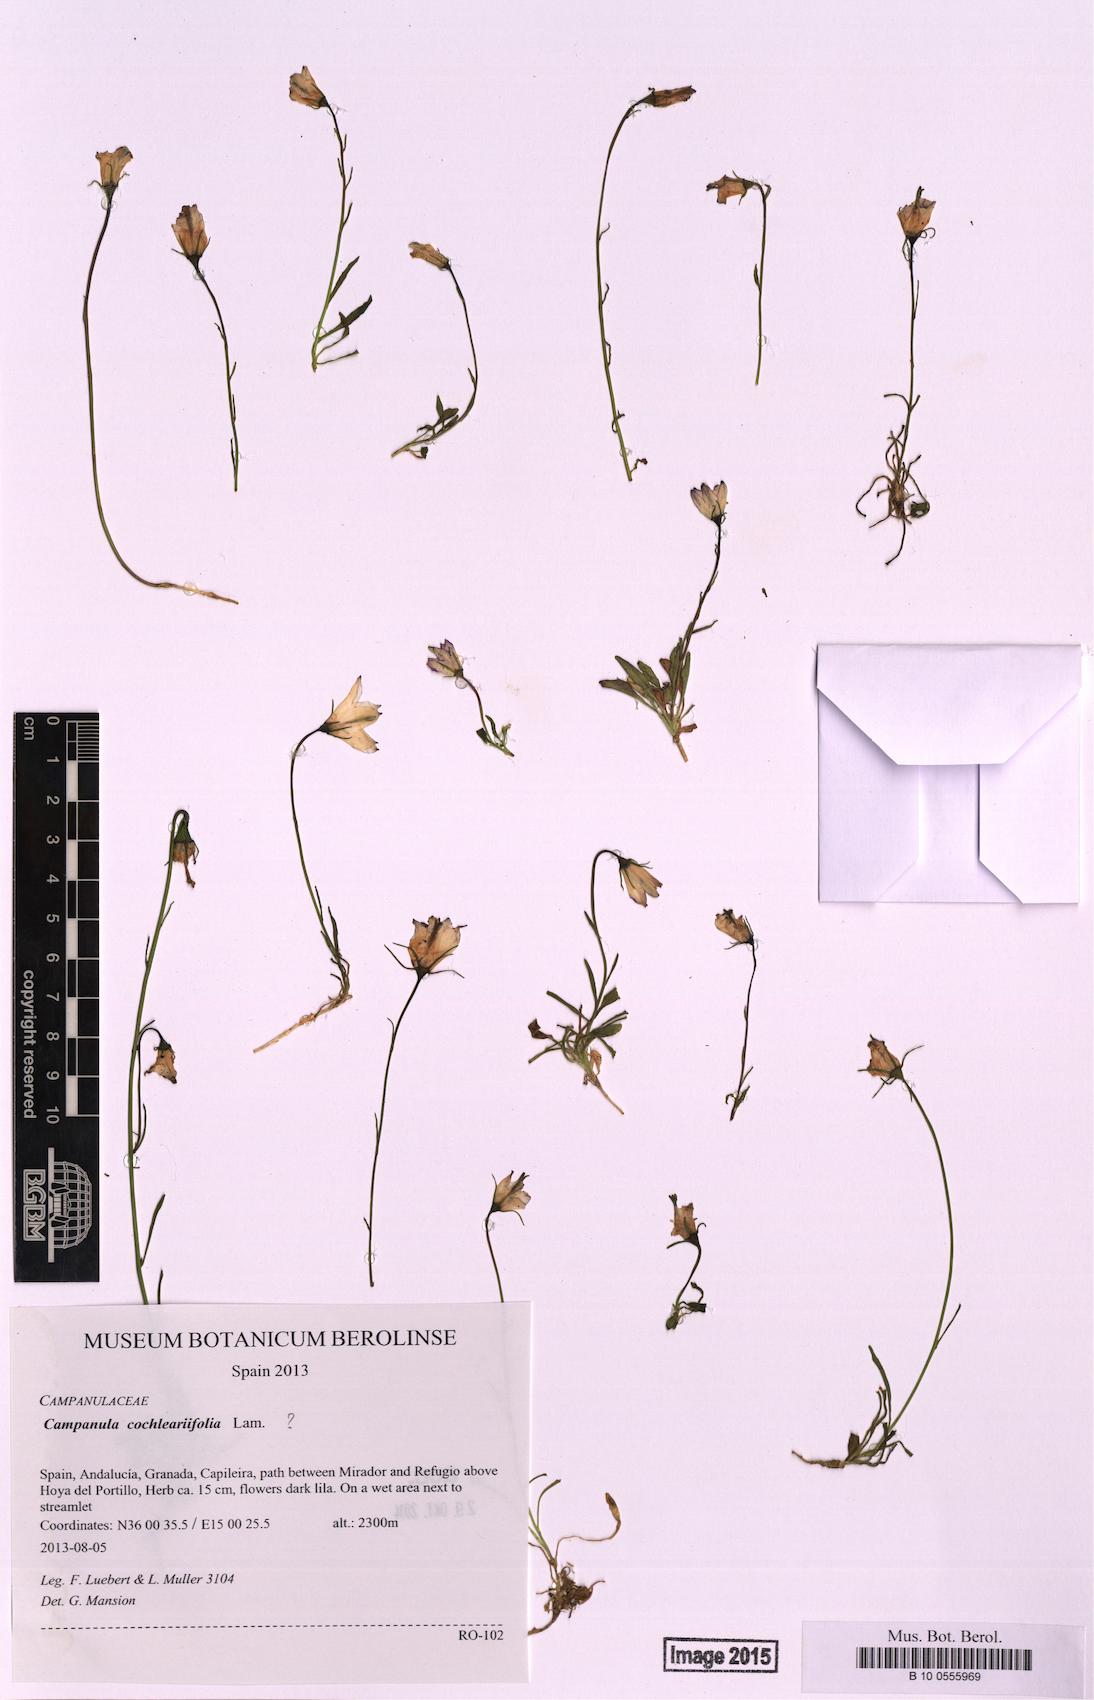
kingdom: Plantae
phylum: Tracheophyta
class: Magnoliopsida
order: Asterales
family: Campanulaceae
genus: Campanula
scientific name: Campanula cochleariifolia
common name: Fairies'-thimbles
